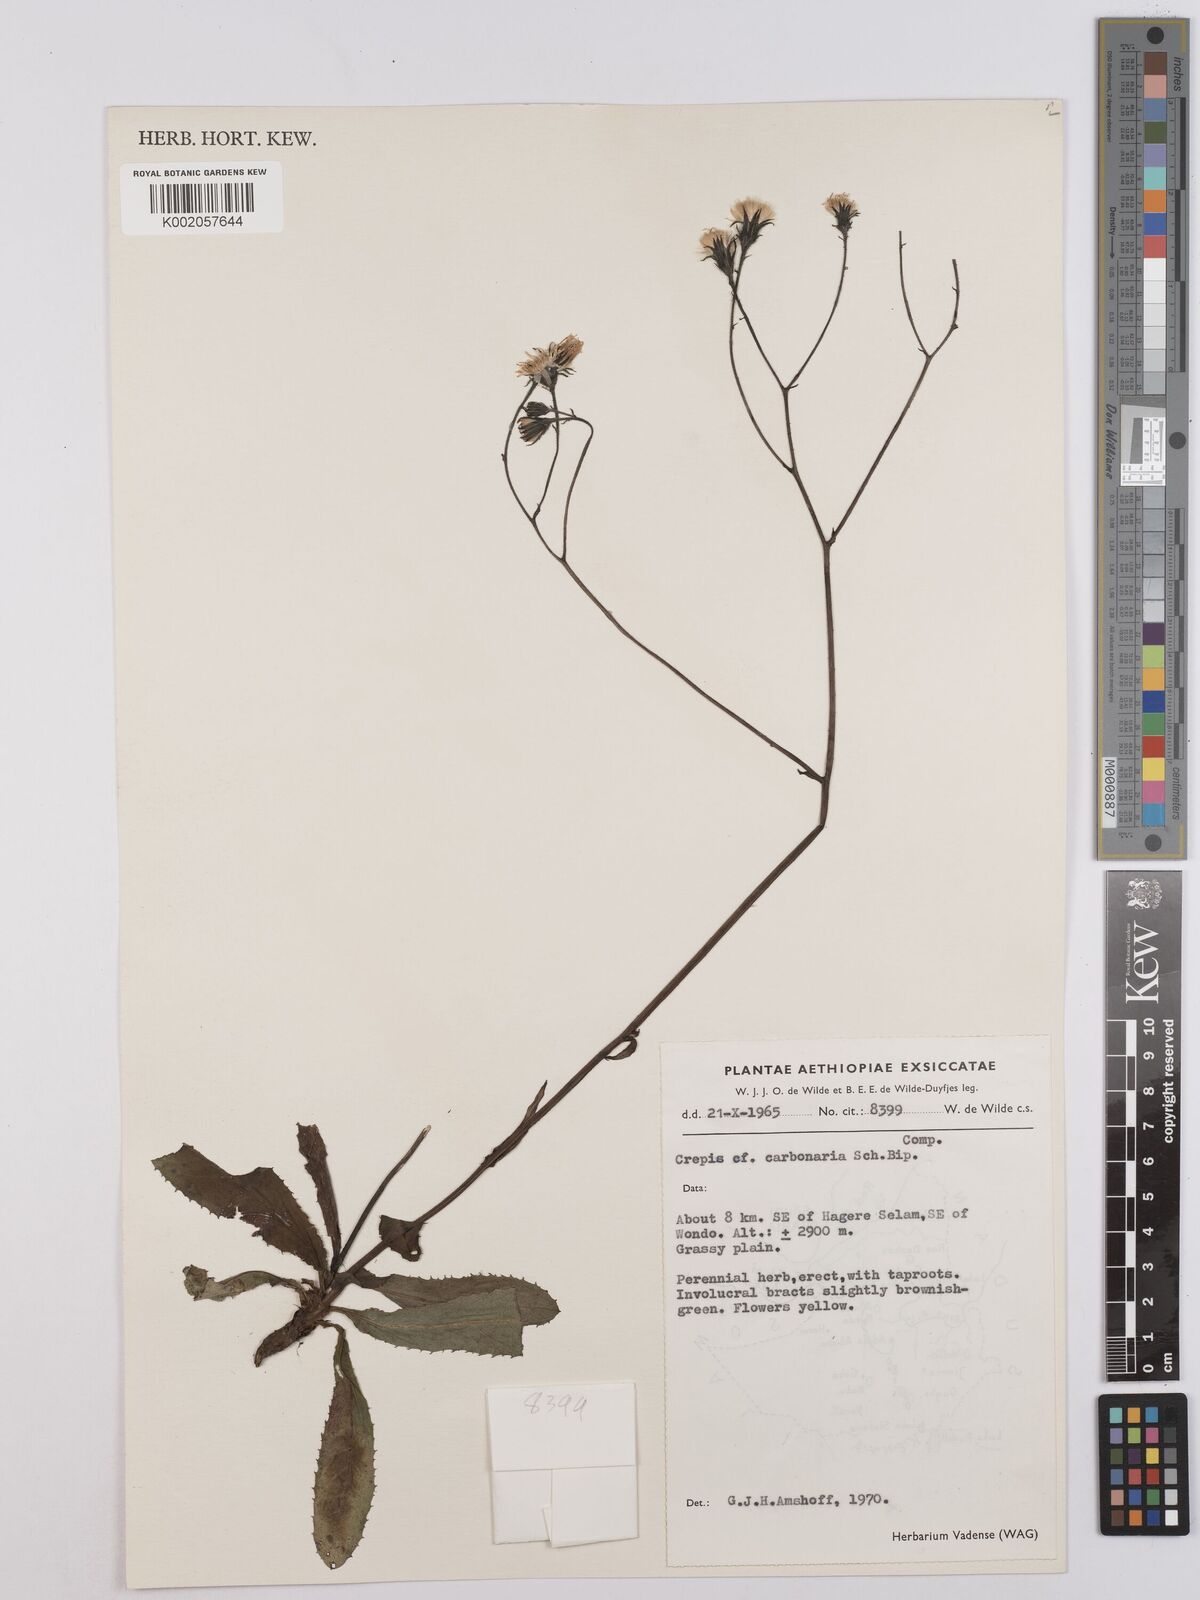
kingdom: Plantae
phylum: Tracheophyta
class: Magnoliopsida
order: Asterales
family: Asteraceae
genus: Crepis
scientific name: Crepis carbonaria
